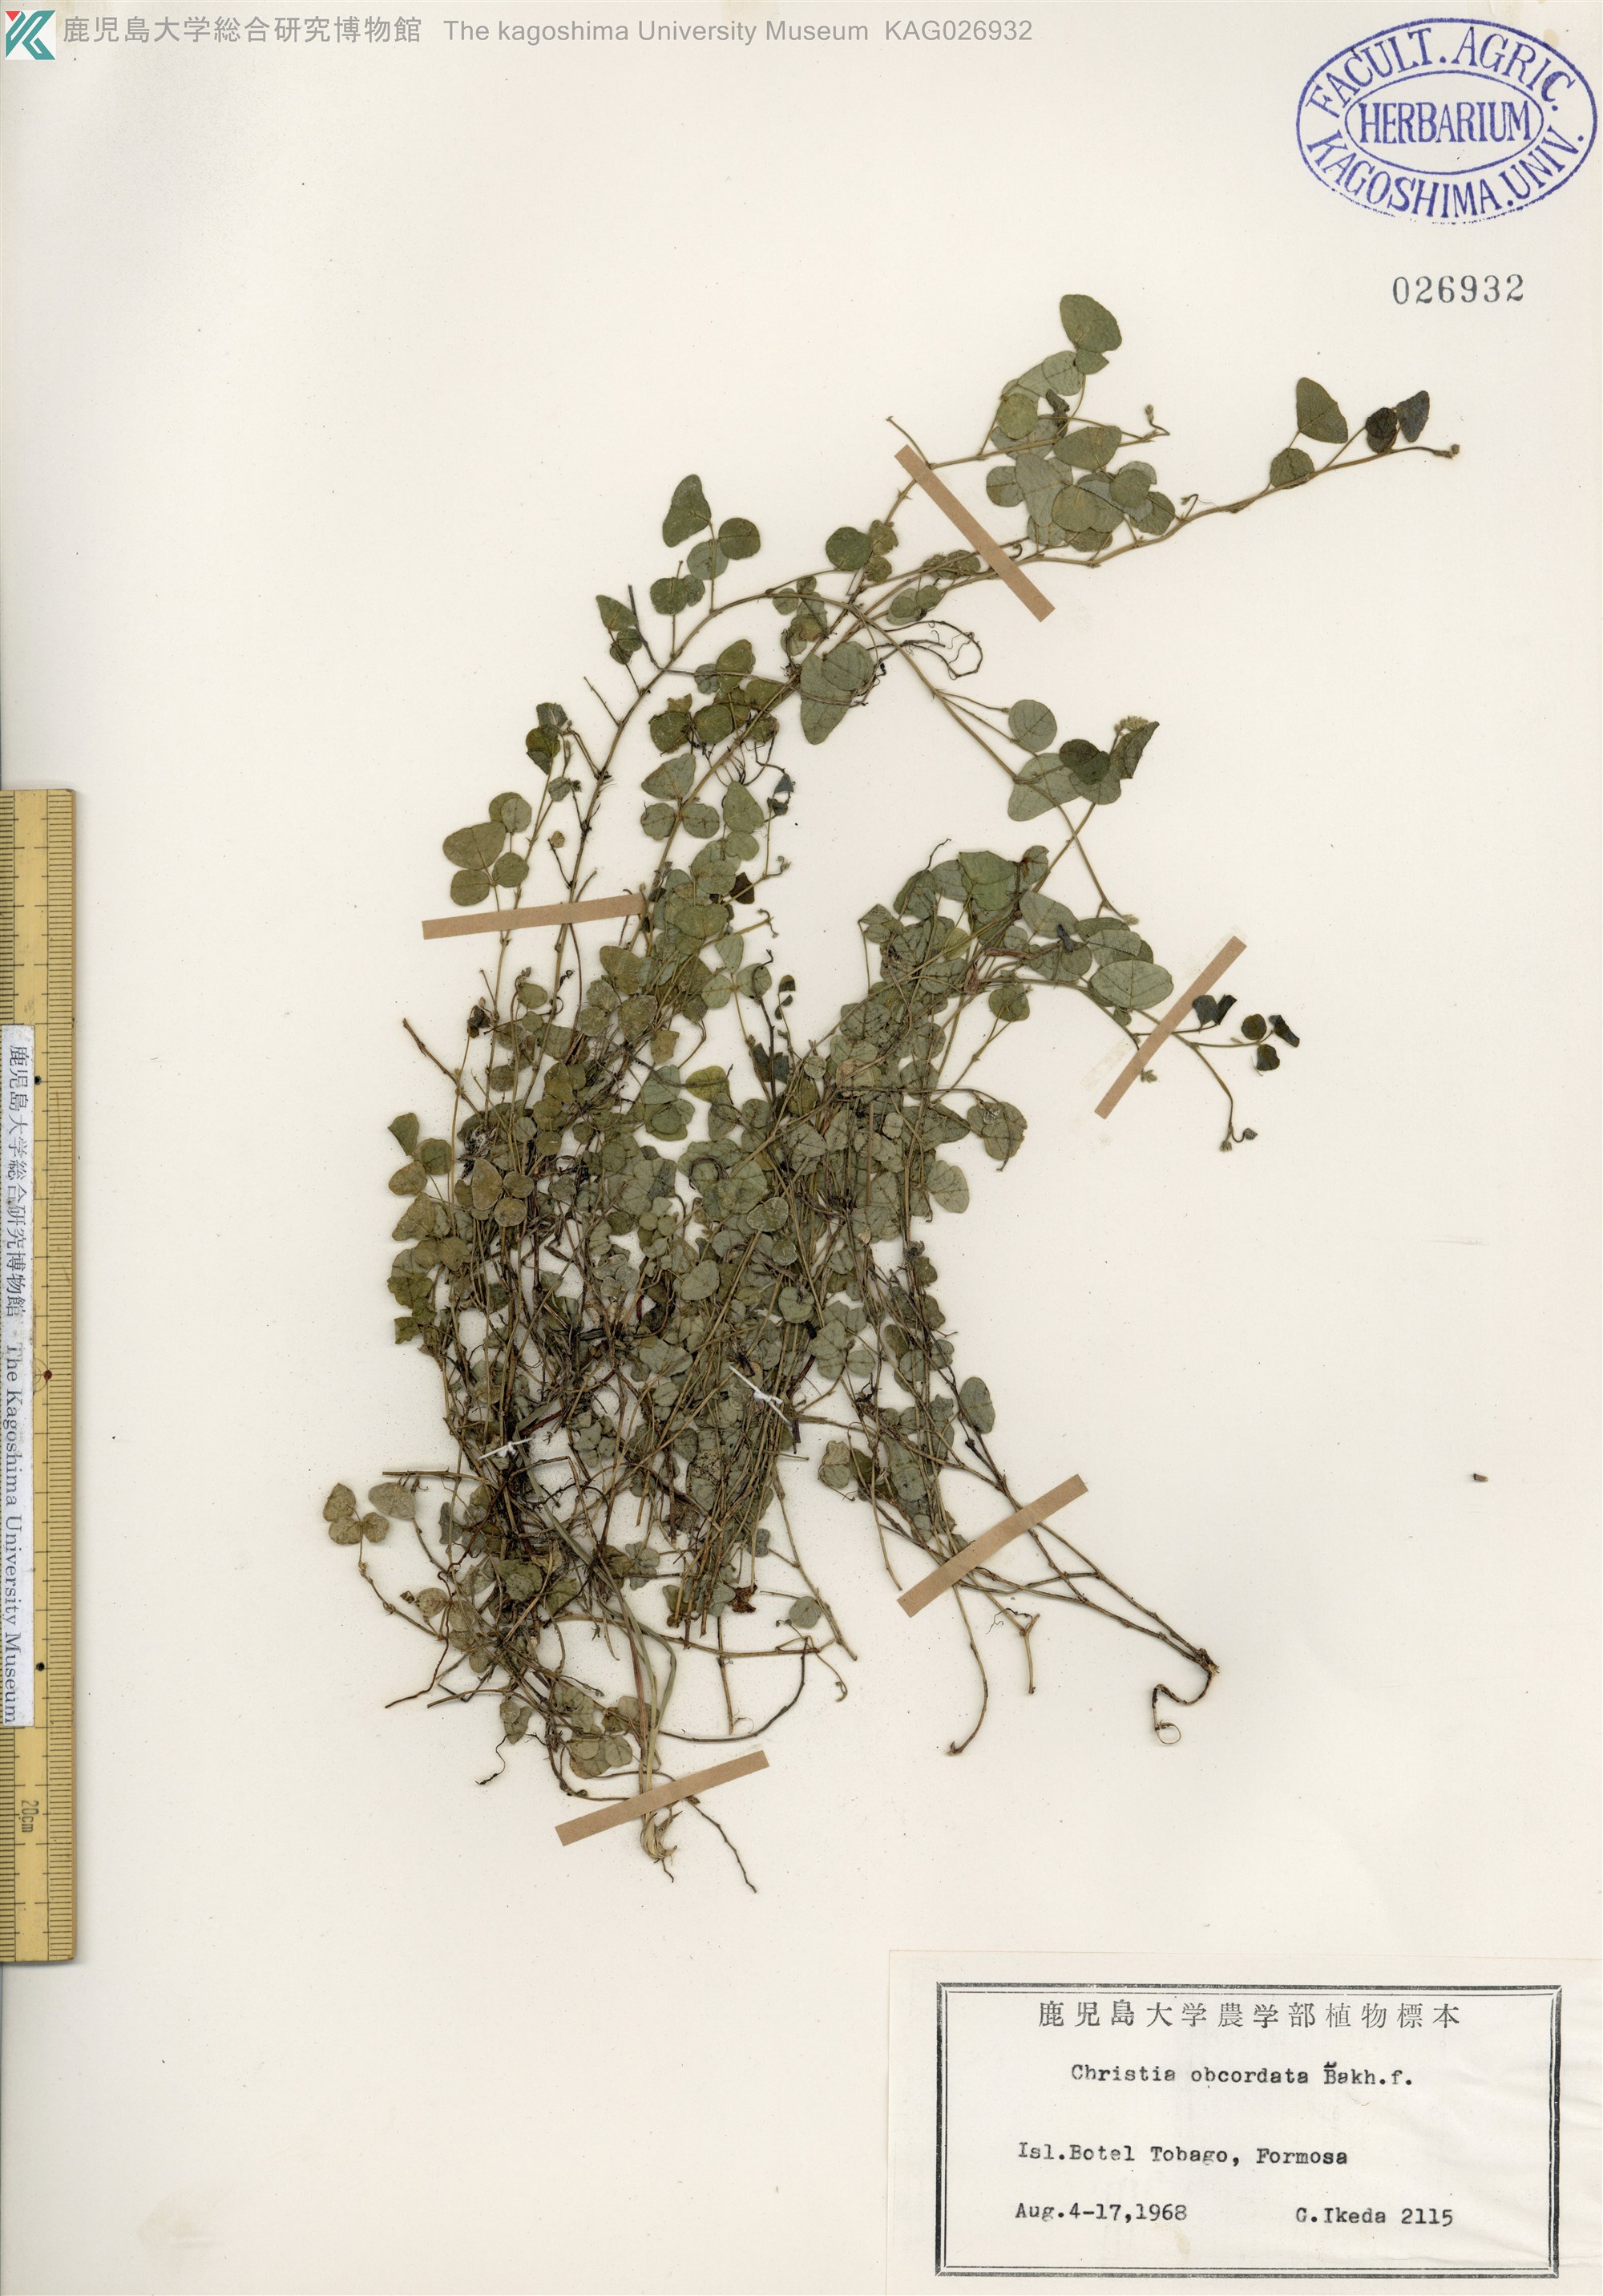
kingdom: Plantae
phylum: Tracheophyta
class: Magnoliopsida
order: Fabales
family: Fabaceae
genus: Christia
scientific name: Christia obcordata
